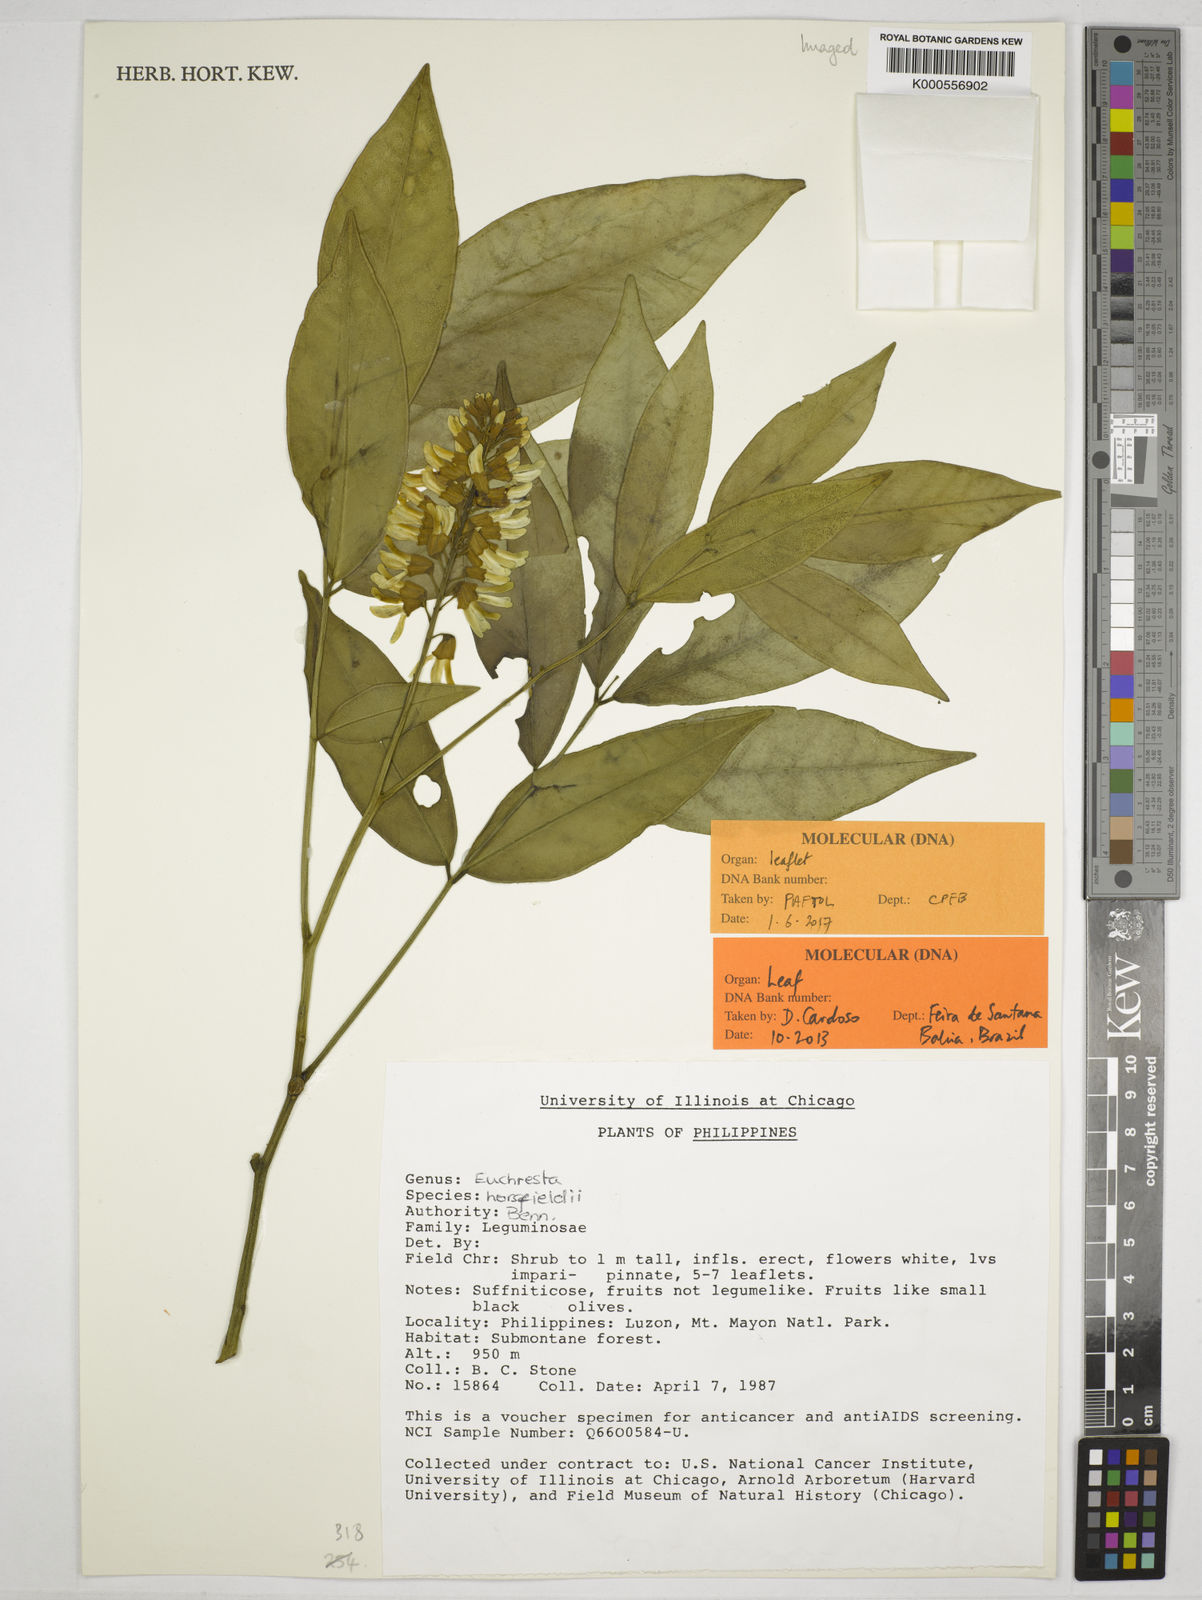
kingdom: Plantae
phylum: Tracheophyta
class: Magnoliopsida
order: Fabales
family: Fabaceae
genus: Euchresta
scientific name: Euchresta horsfieldii
